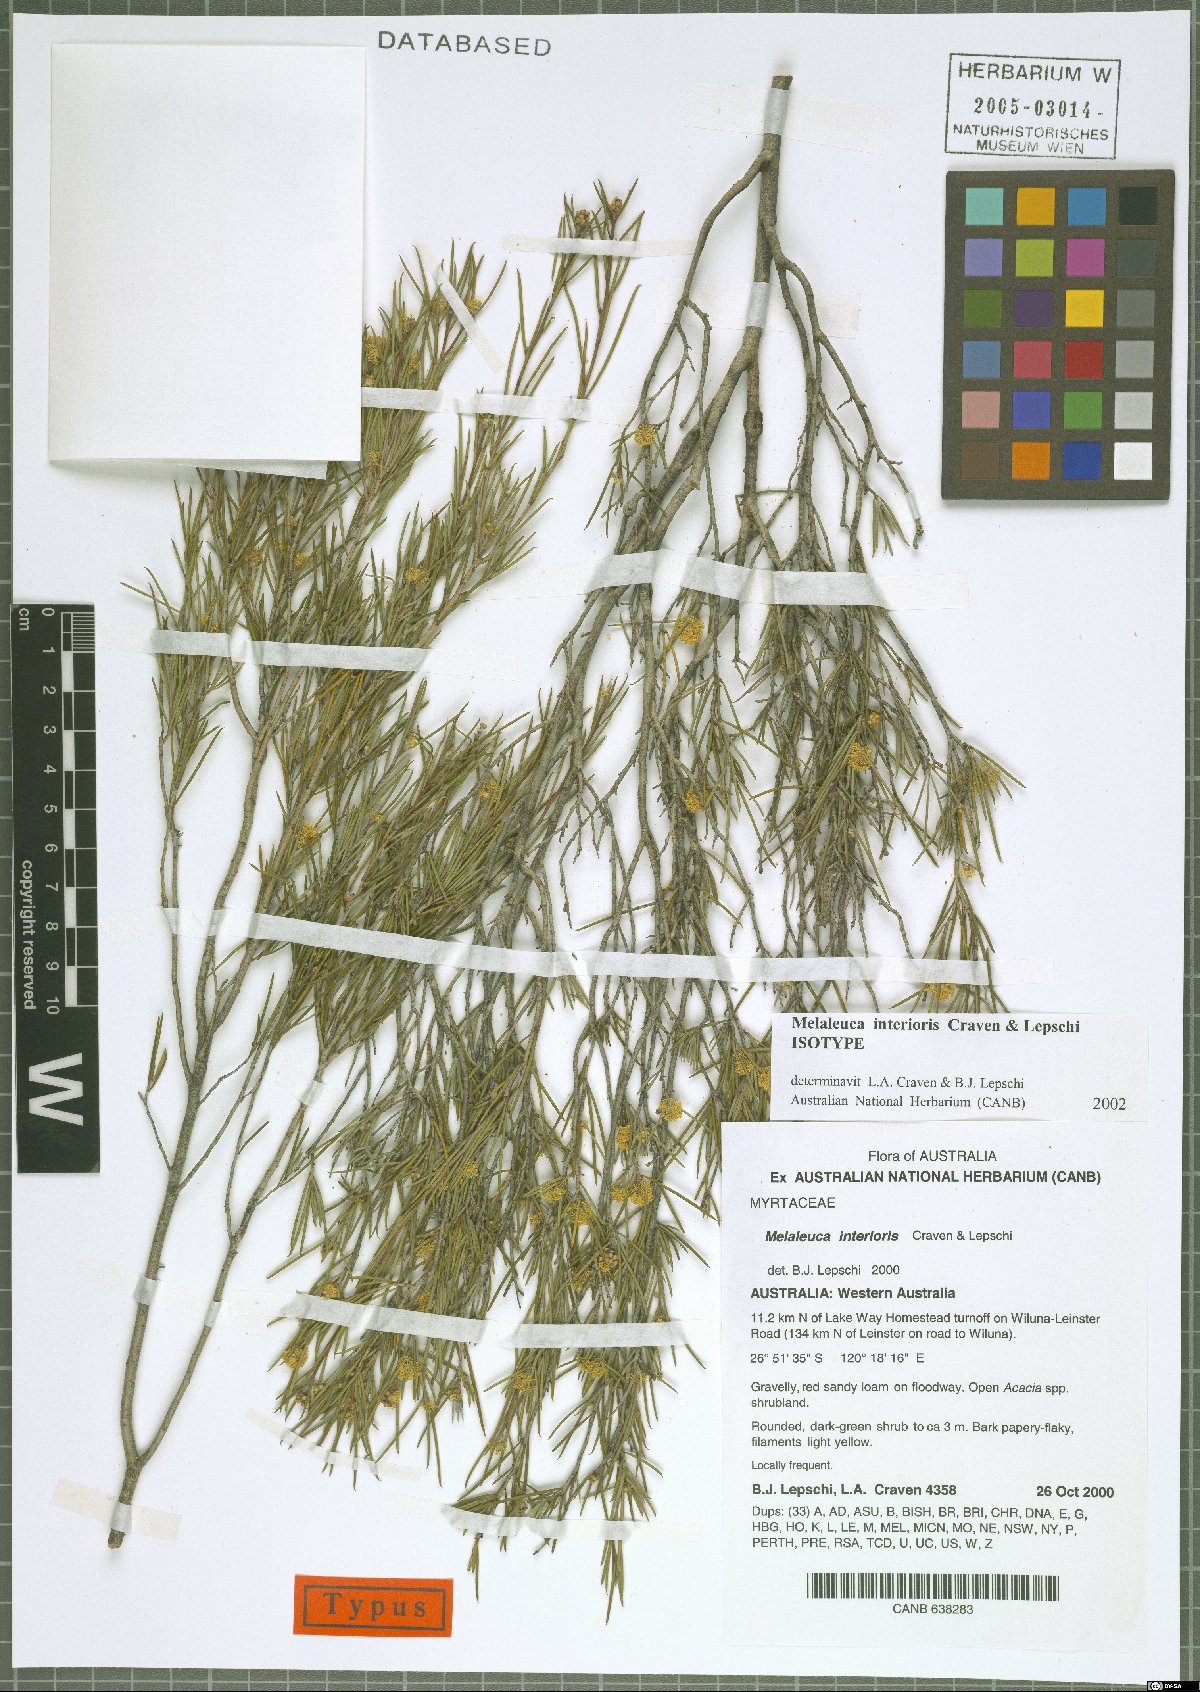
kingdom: Plantae
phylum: Tracheophyta
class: Magnoliopsida
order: Myrtales
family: Myrtaceae
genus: Melaleuca
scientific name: Melaleuca interioris
